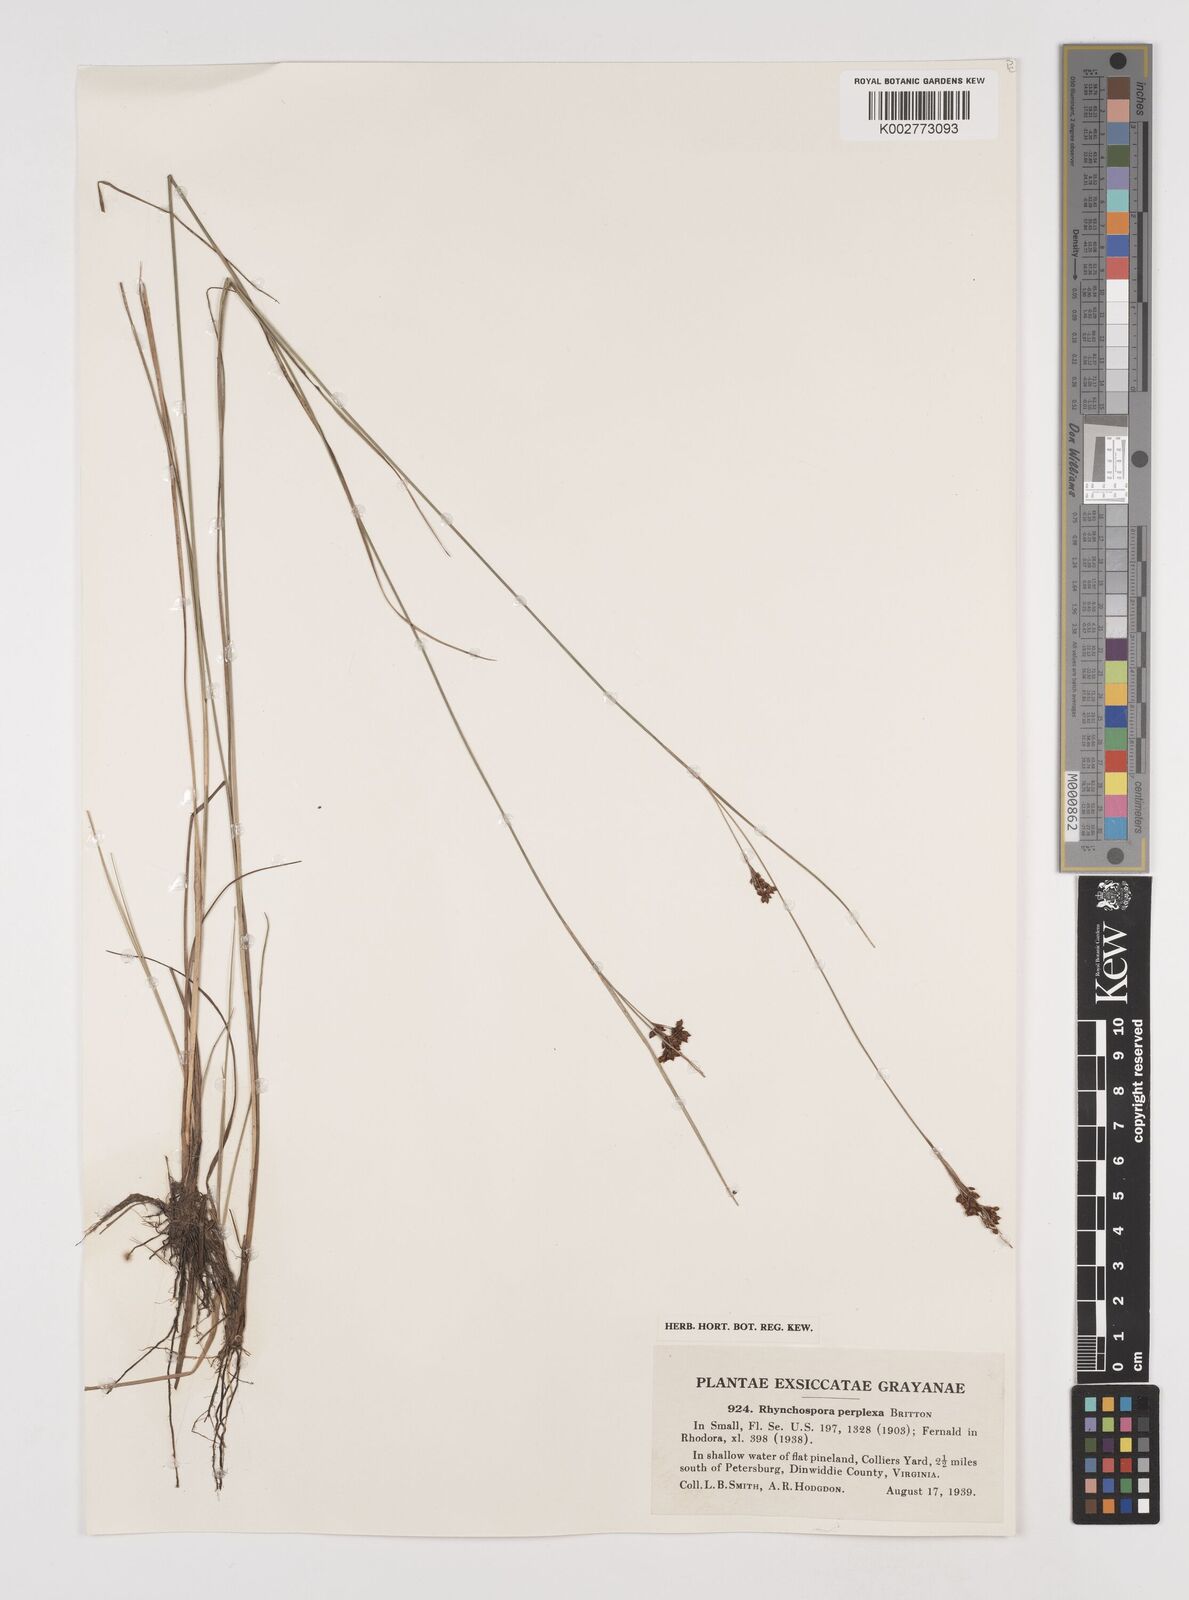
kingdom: Plantae
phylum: Tracheophyta
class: Liliopsida
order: Poales
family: Cyperaceae
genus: Rhynchospora
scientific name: Rhynchospora perplexa
